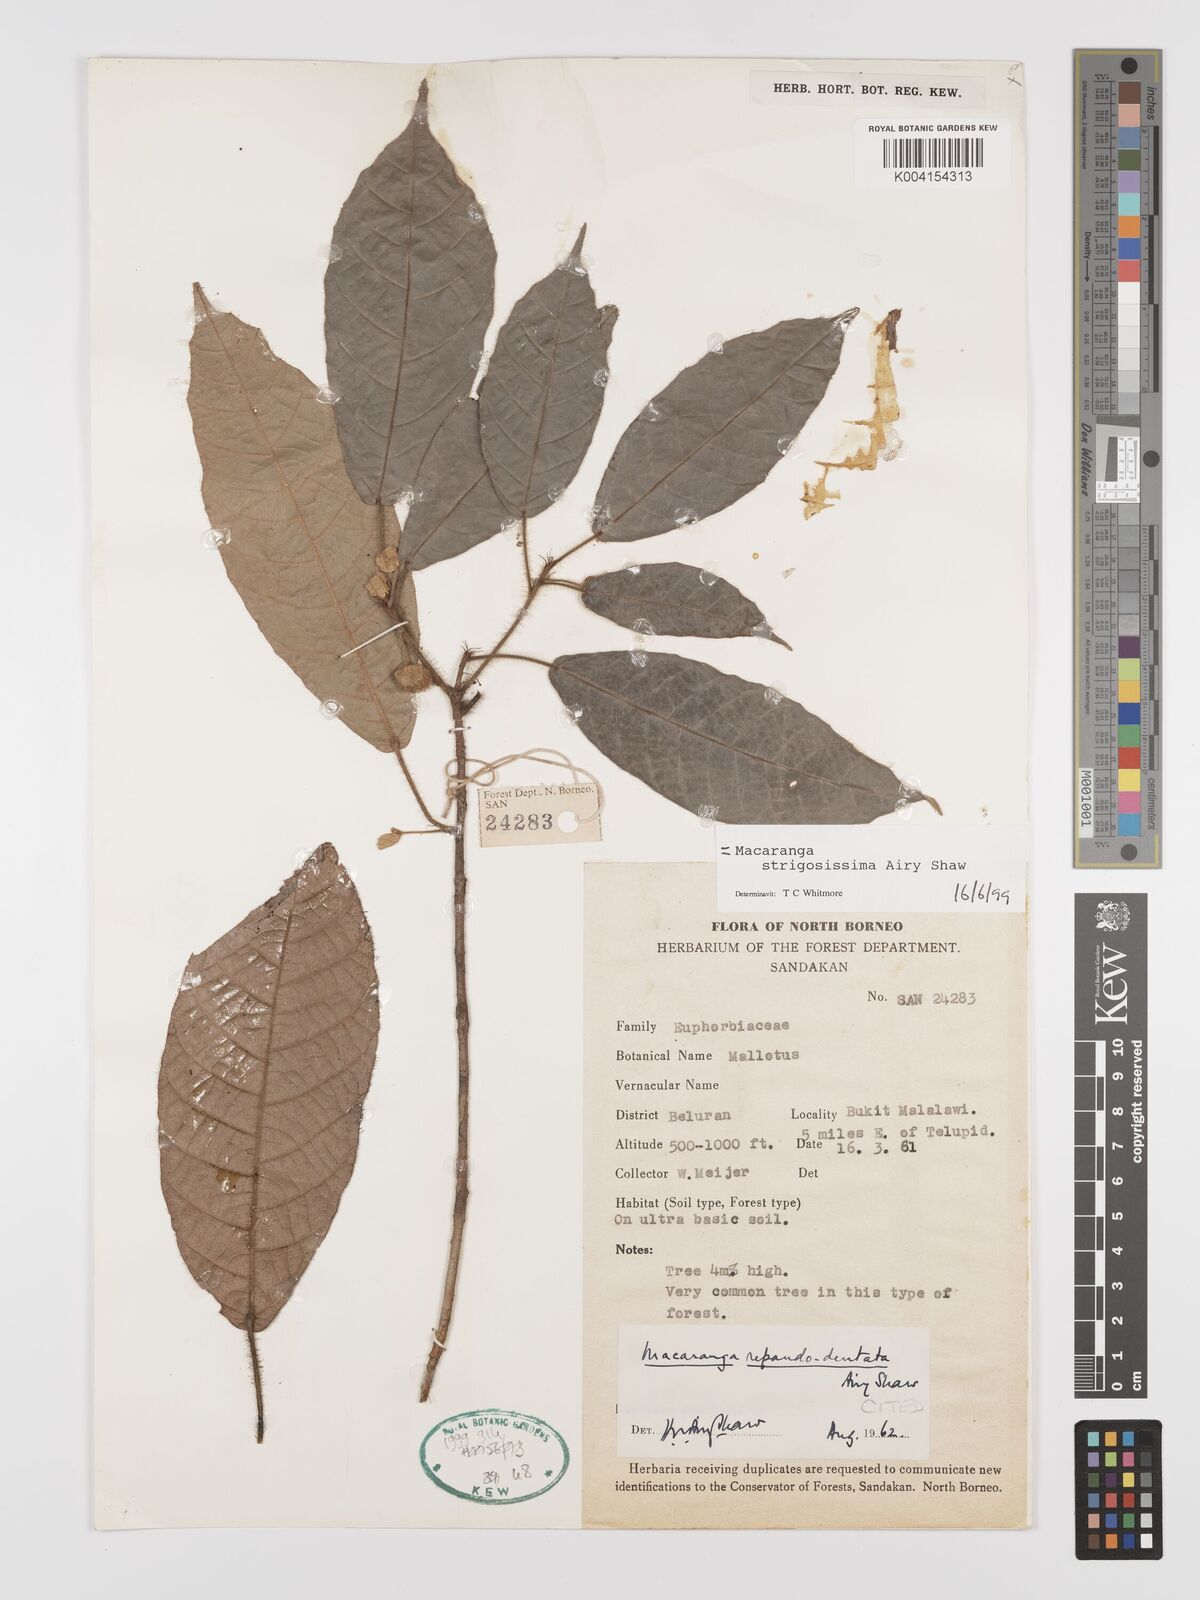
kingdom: Plantae
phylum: Tracheophyta
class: Magnoliopsida
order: Malpighiales
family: Euphorbiaceae
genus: Macaranga
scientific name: Macaranga strigosissima
